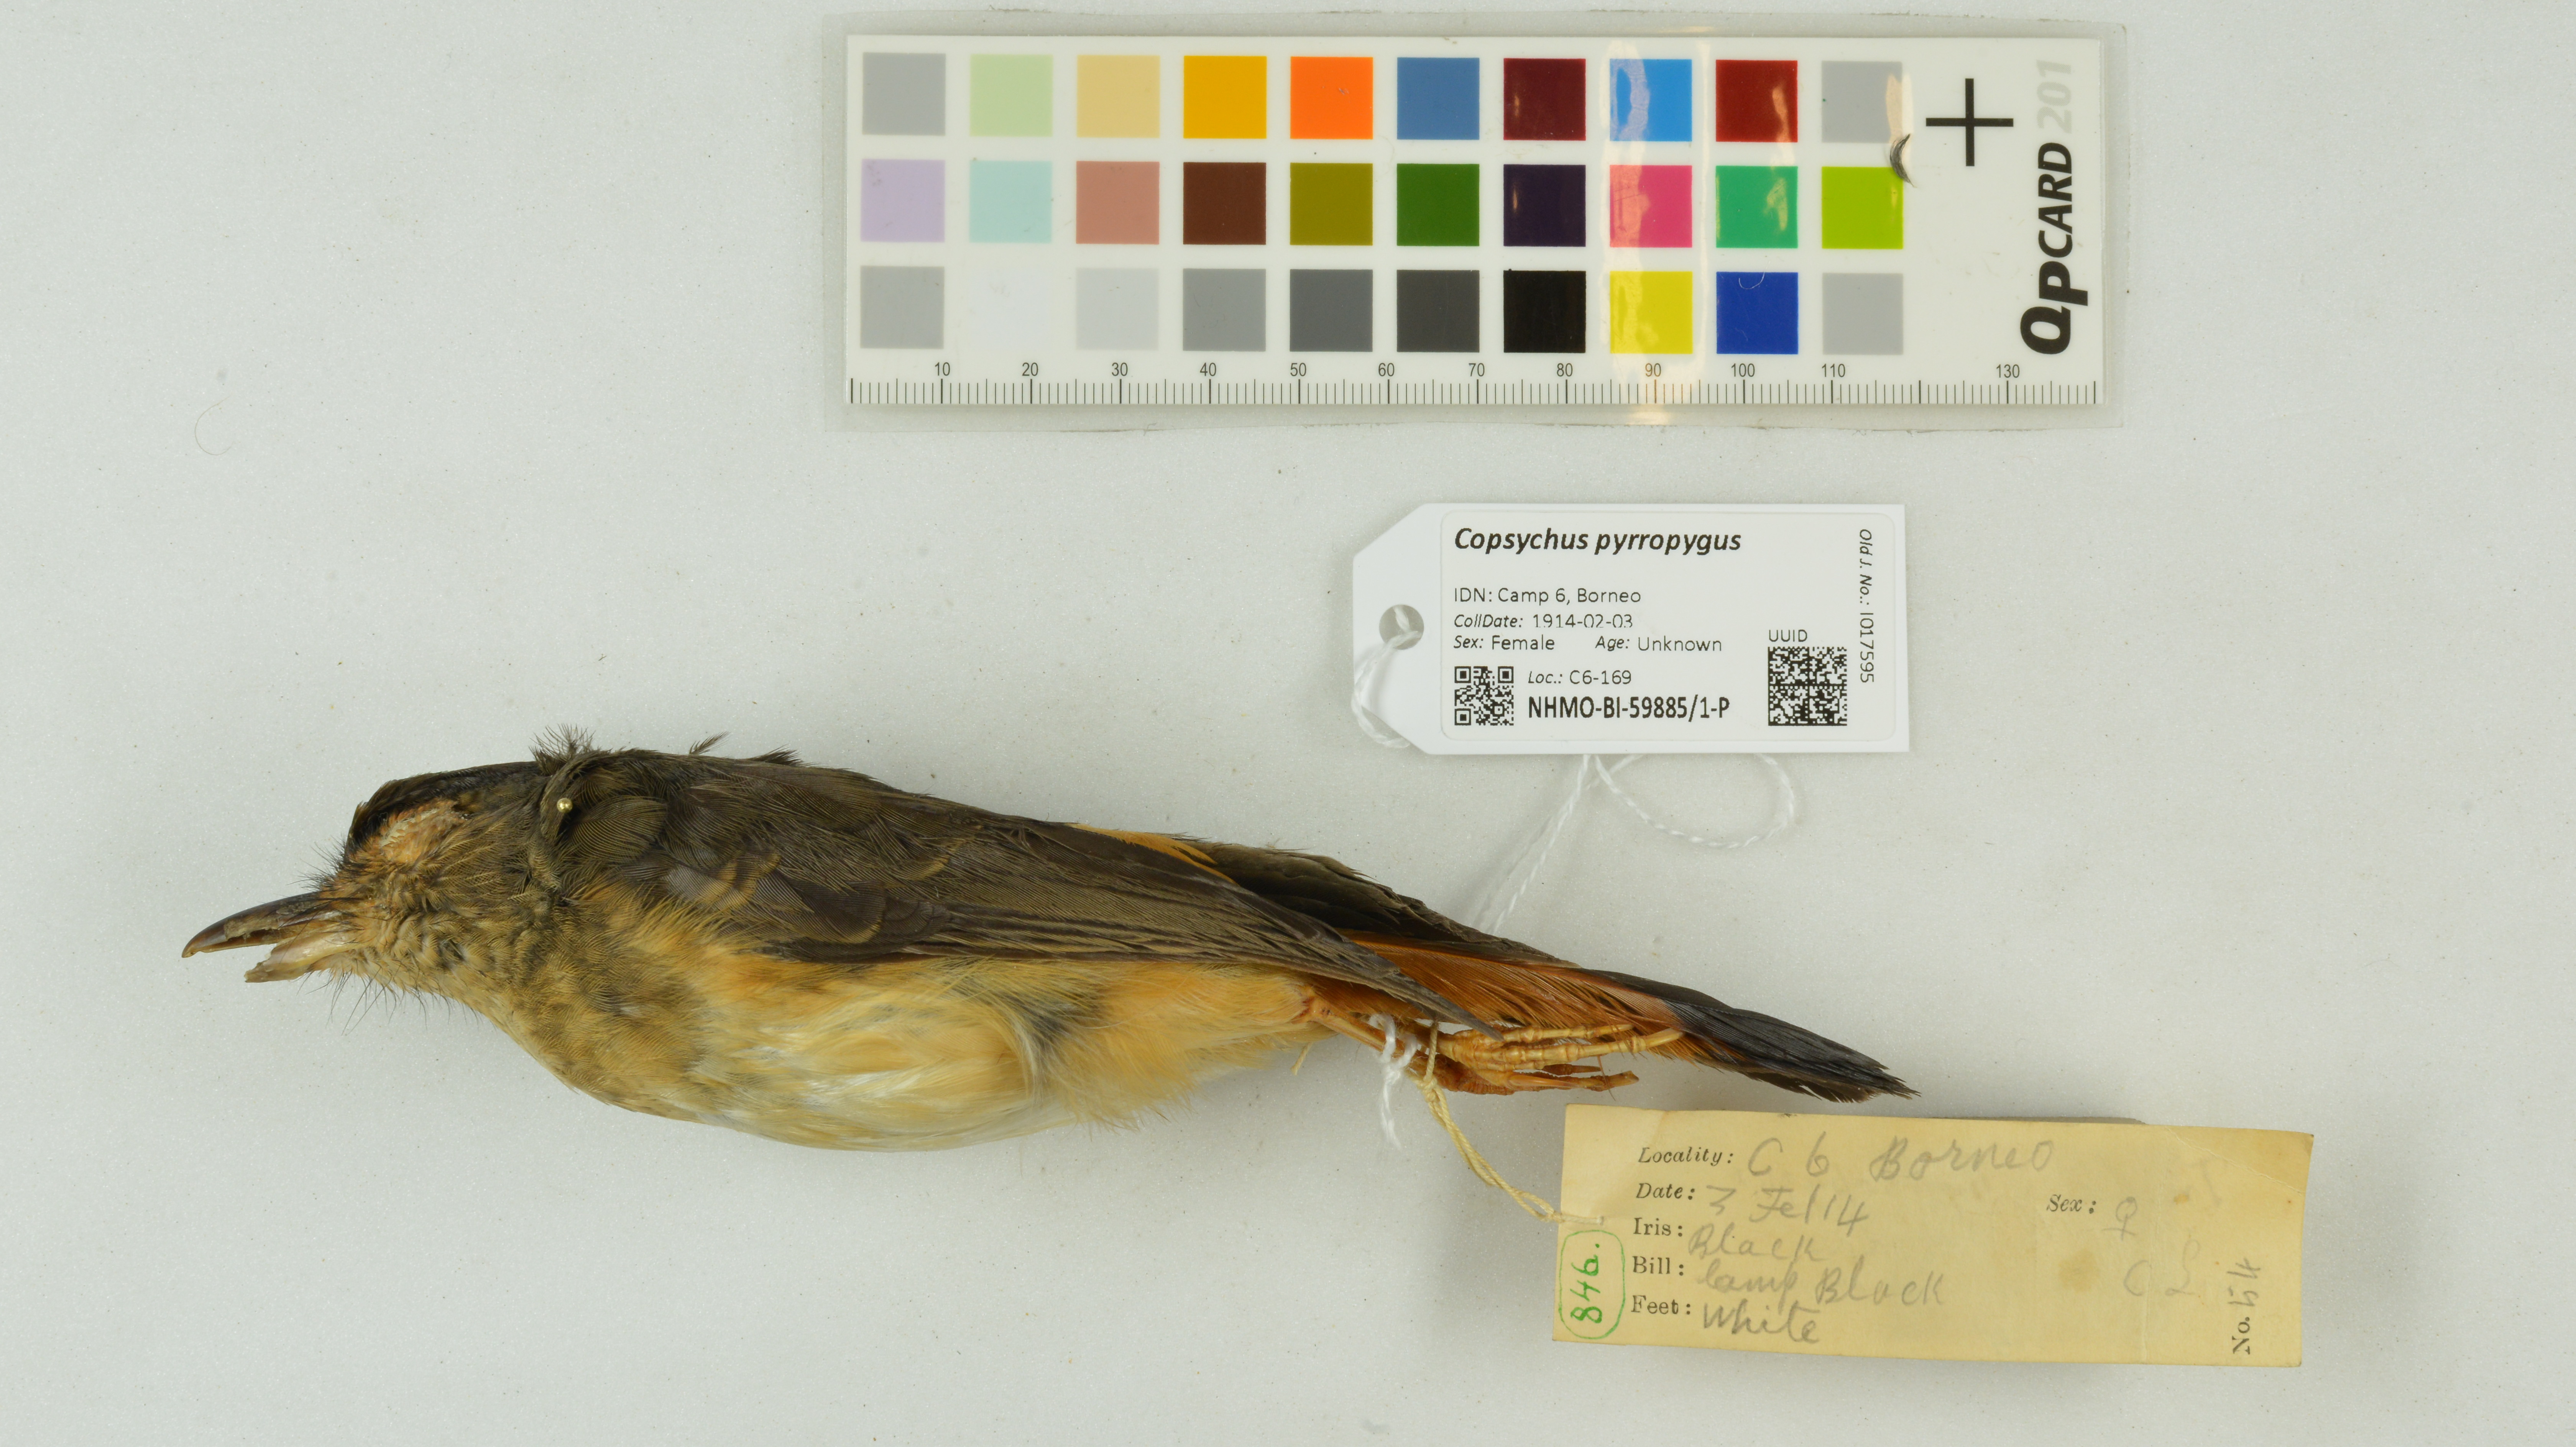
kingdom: Animalia
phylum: Chordata
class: Aves
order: Passeriformes
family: Muscicapidae
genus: Trichixos
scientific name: Trichixos pyrropygus
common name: Rufous-tailed shama
